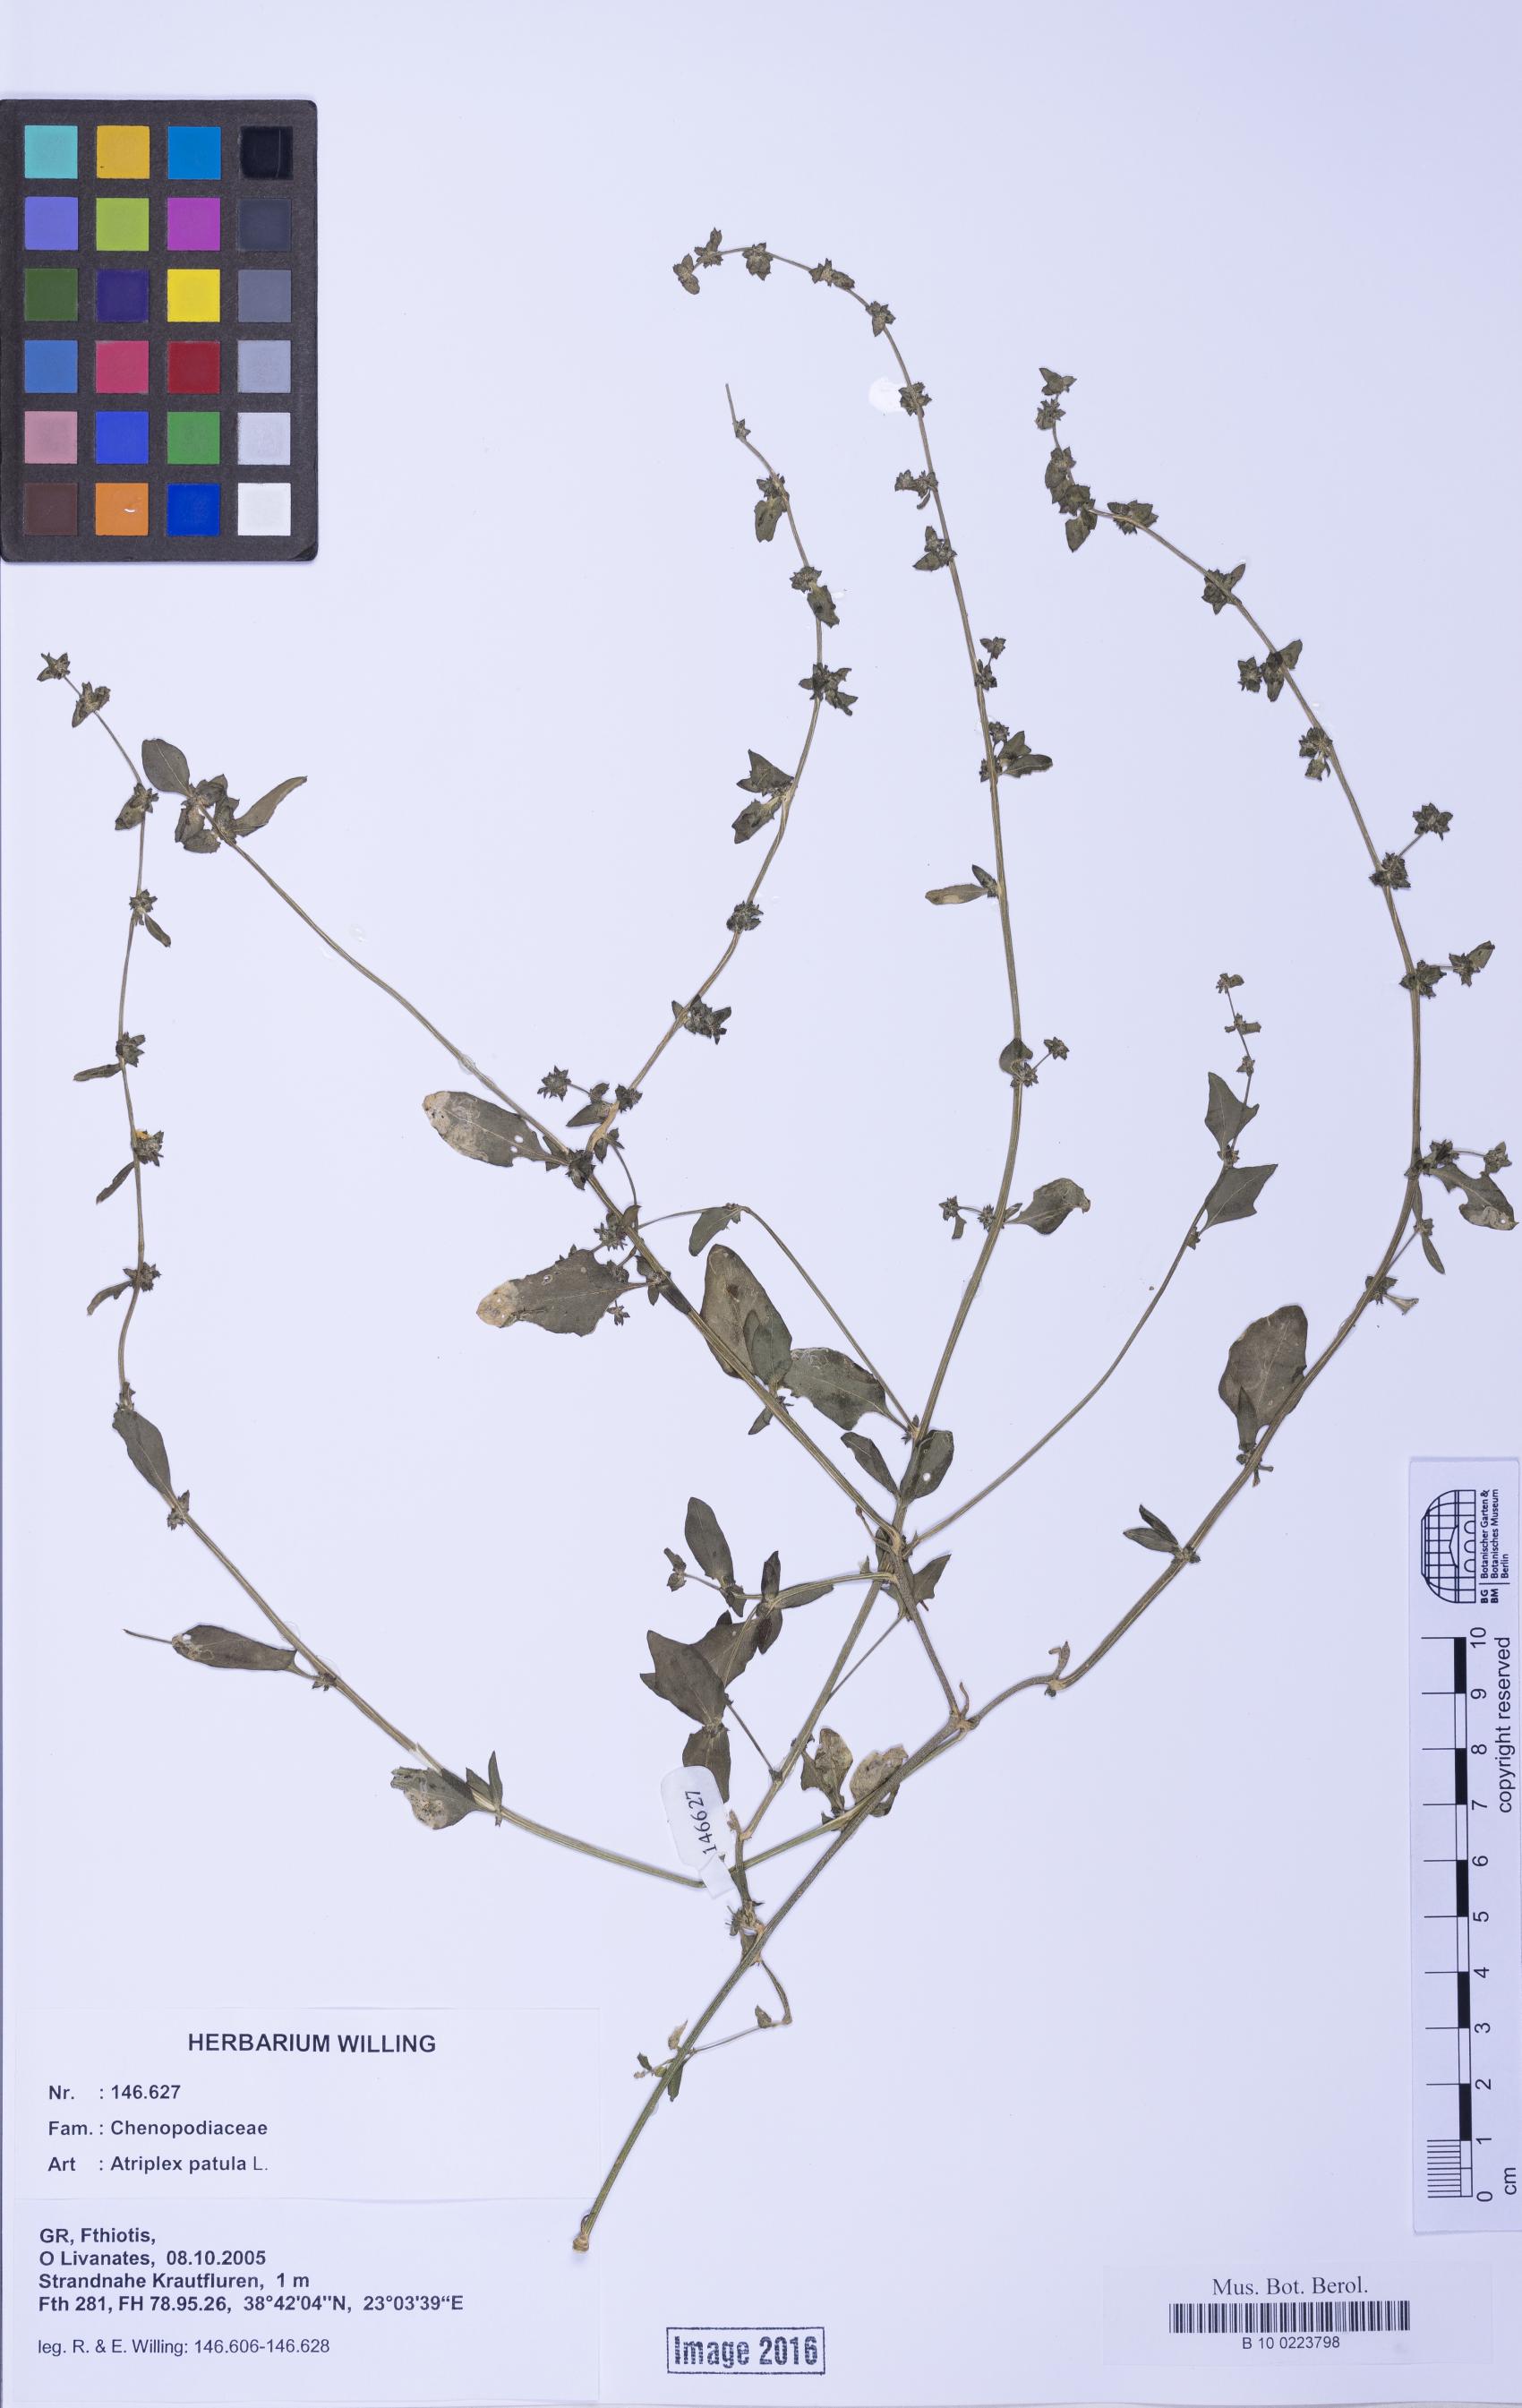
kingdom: Plantae
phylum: Tracheophyta
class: Magnoliopsida
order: Caryophyllales
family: Amaranthaceae
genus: Atriplex
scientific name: Atriplex prostrata
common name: Spear-leaved orache
